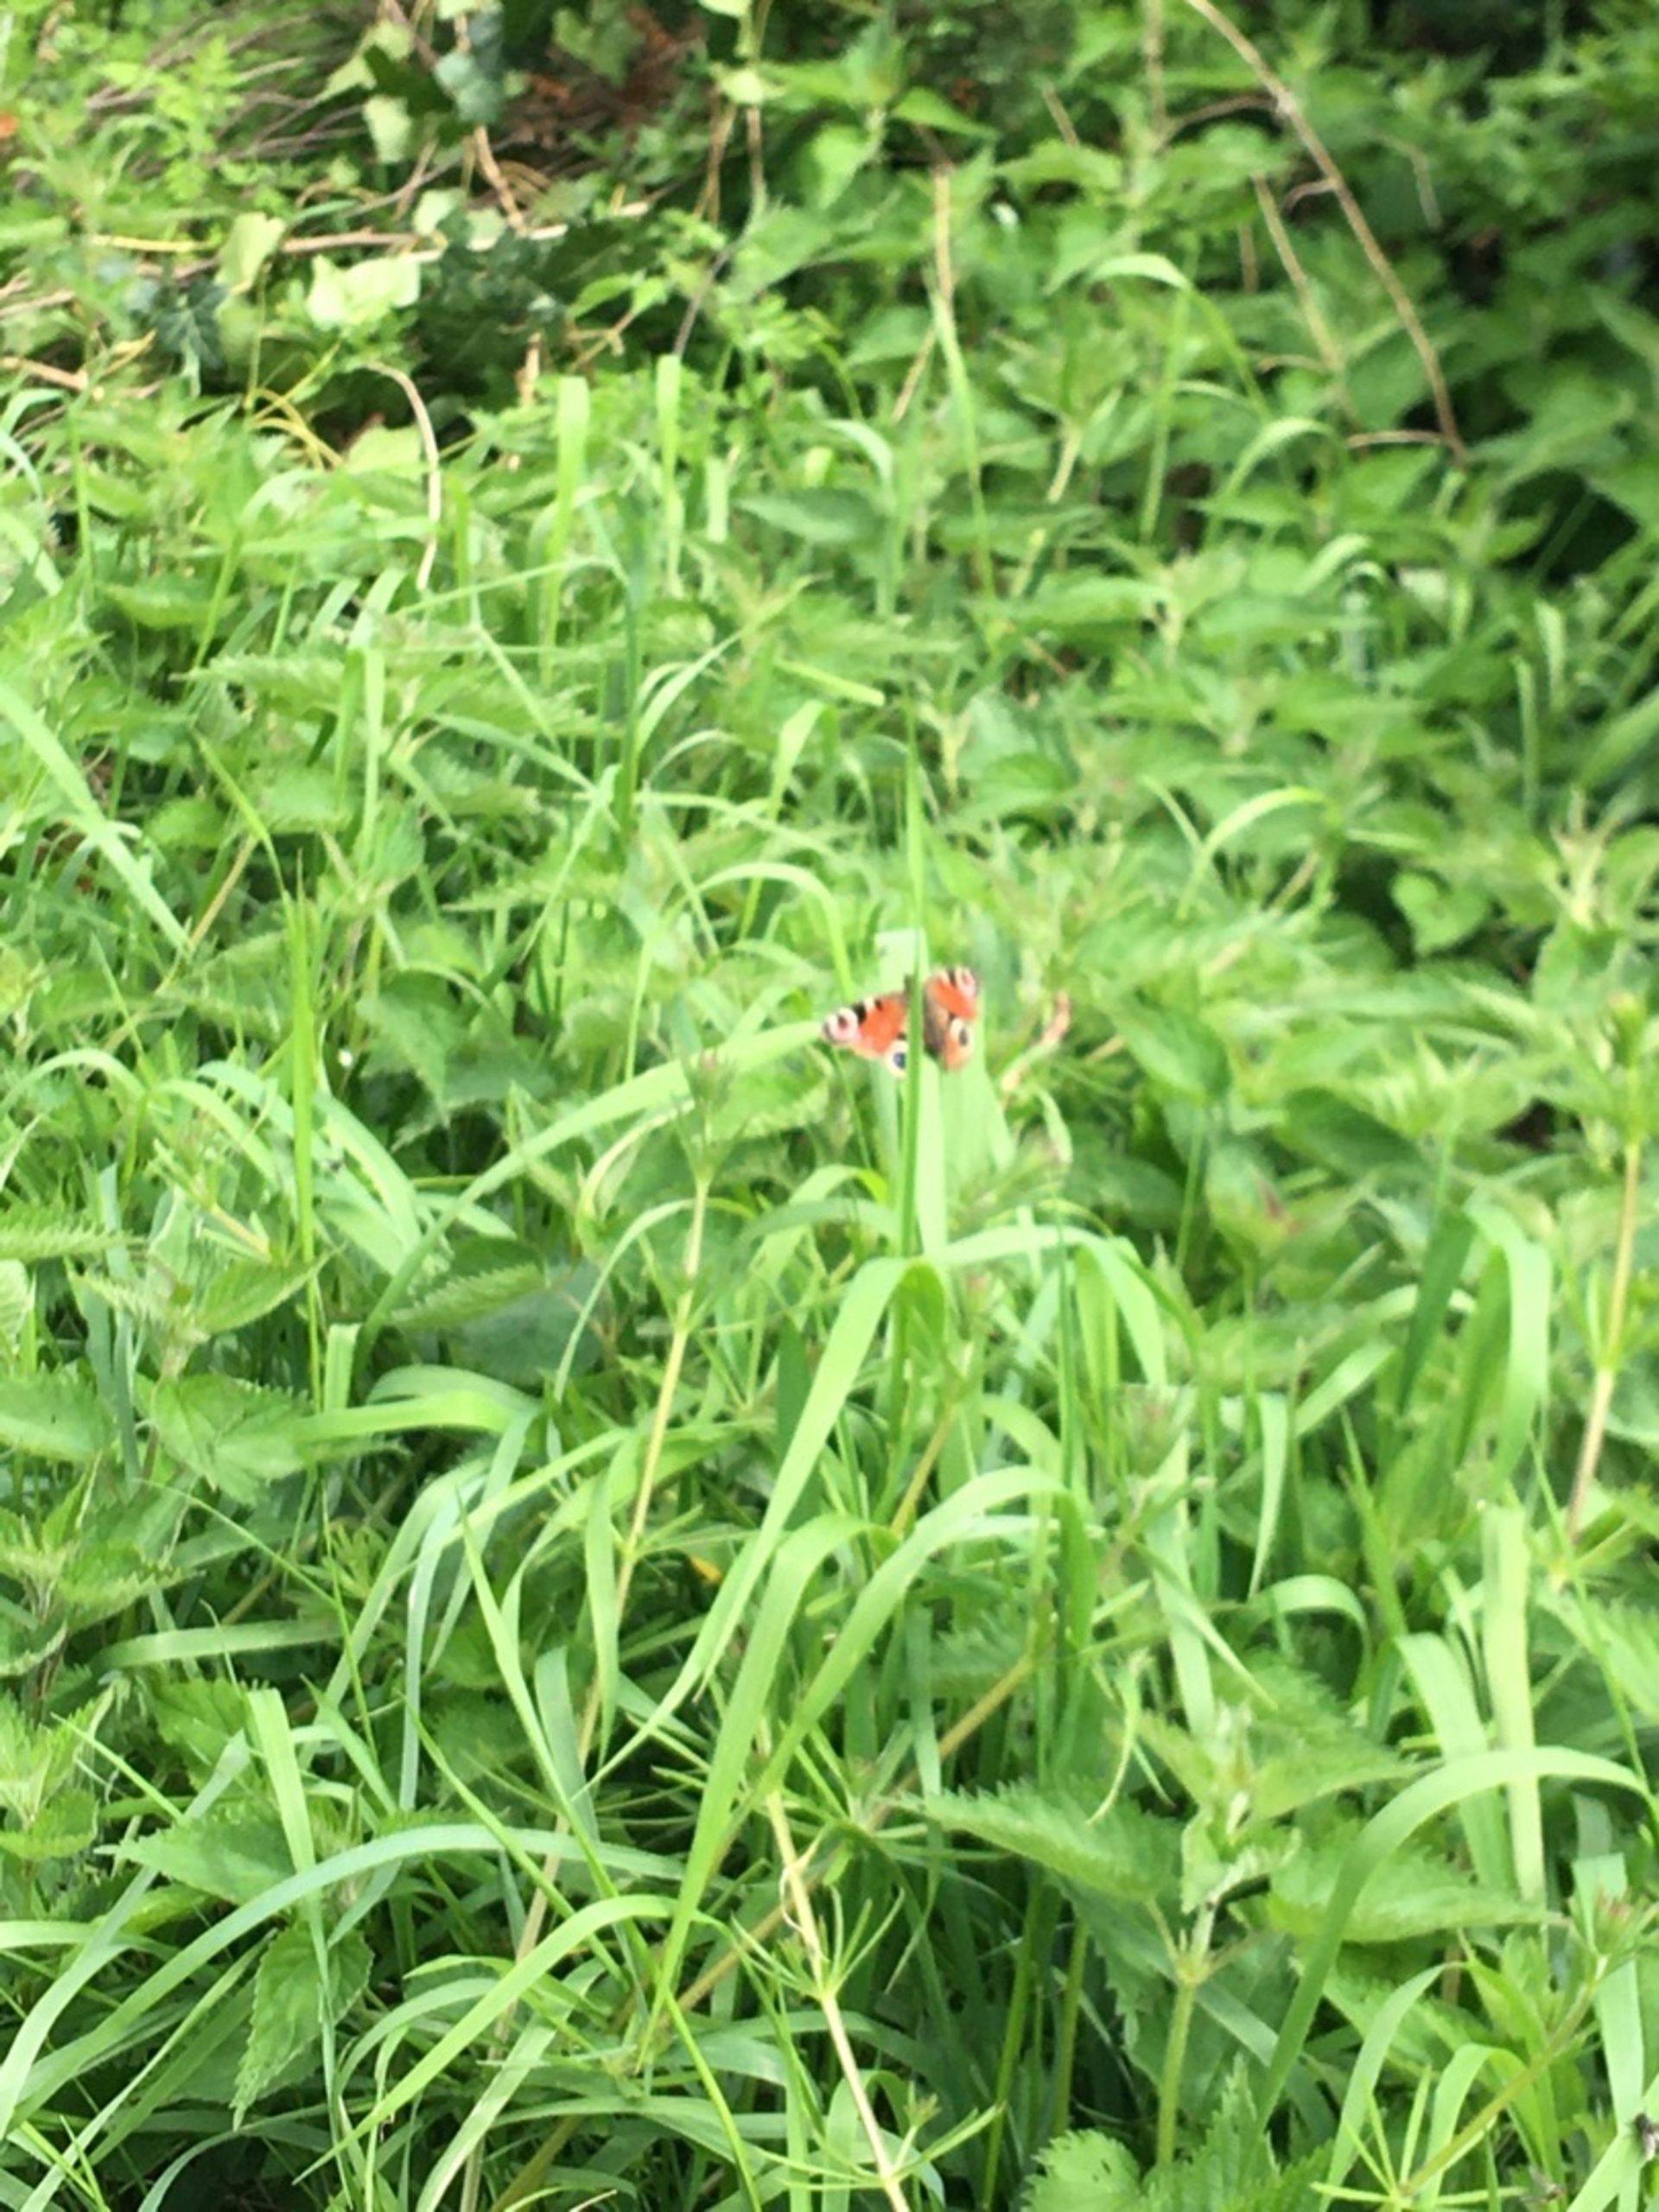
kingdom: Animalia
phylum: Arthropoda
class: Insecta
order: Lepidoptera
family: Nymphalidae
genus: Aglais
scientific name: Aglais io
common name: Dagpåfugleøje
